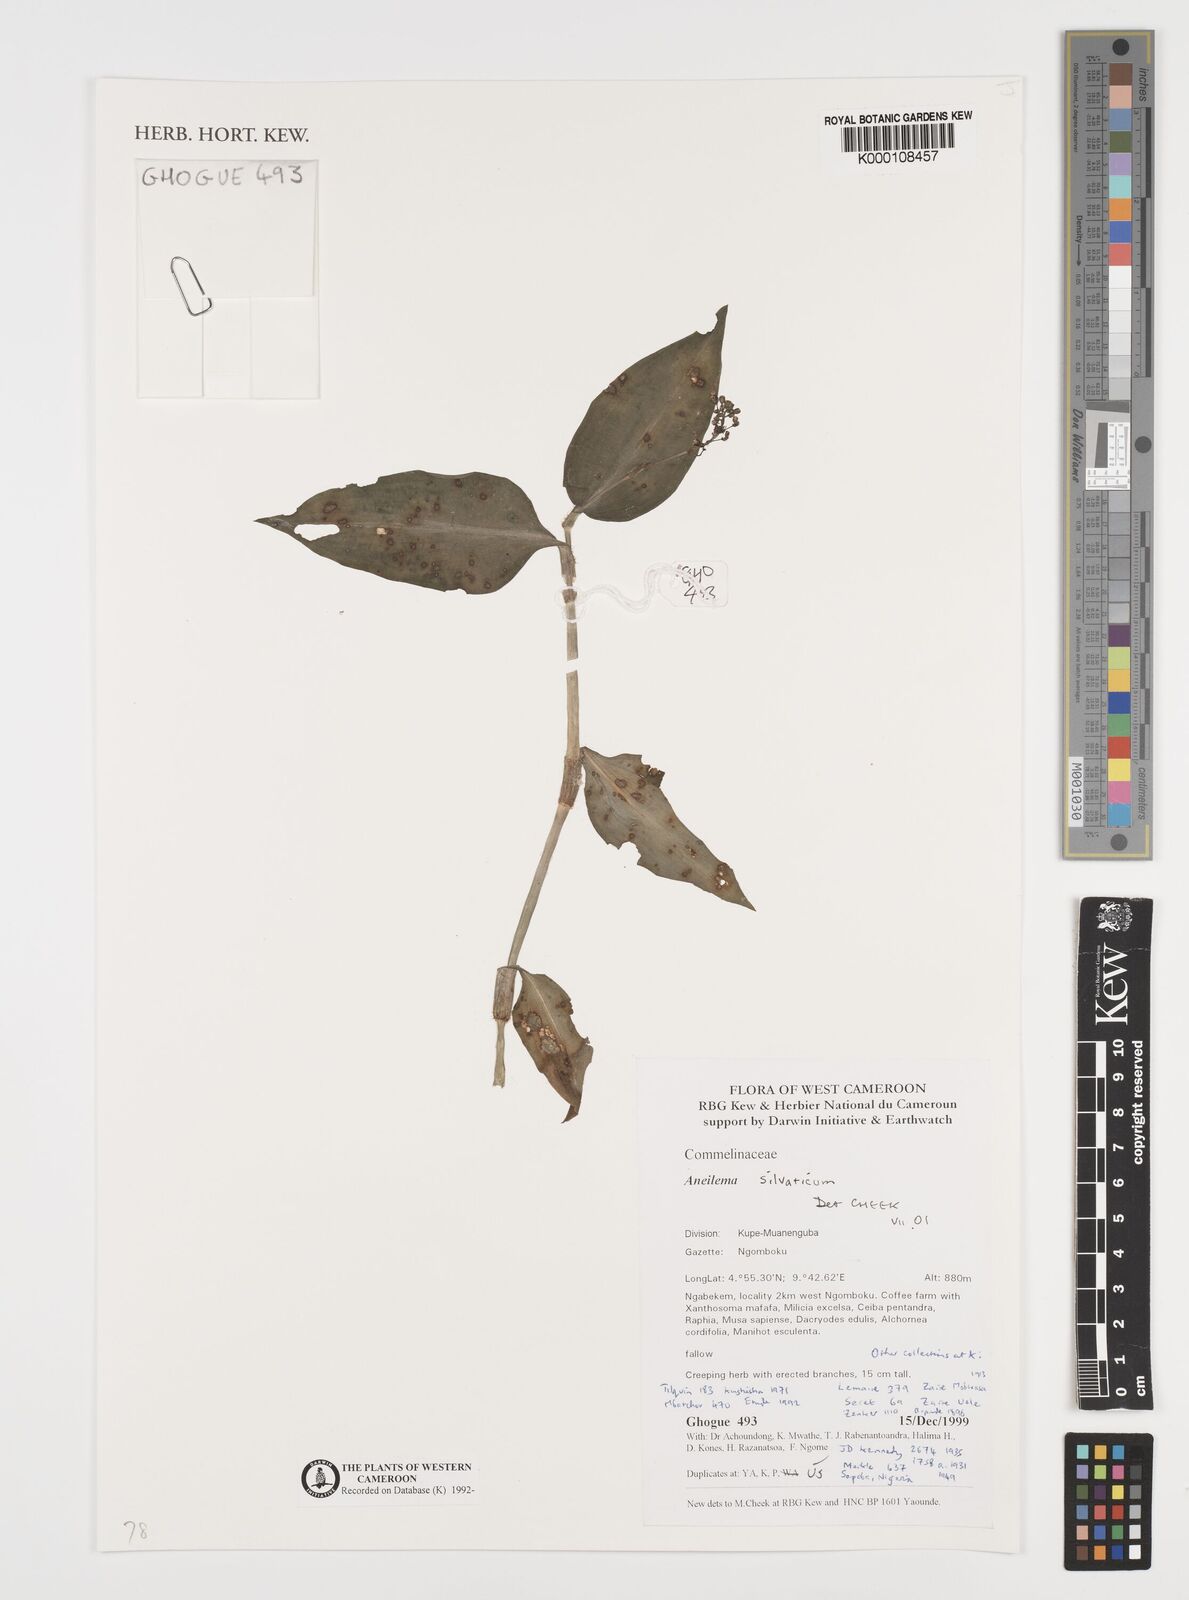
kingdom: Plantae
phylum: Tracheophyta
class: Liliopsida
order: Commelinales
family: Commelinaceae
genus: Aneilema
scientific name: Aneilema silvaticum
